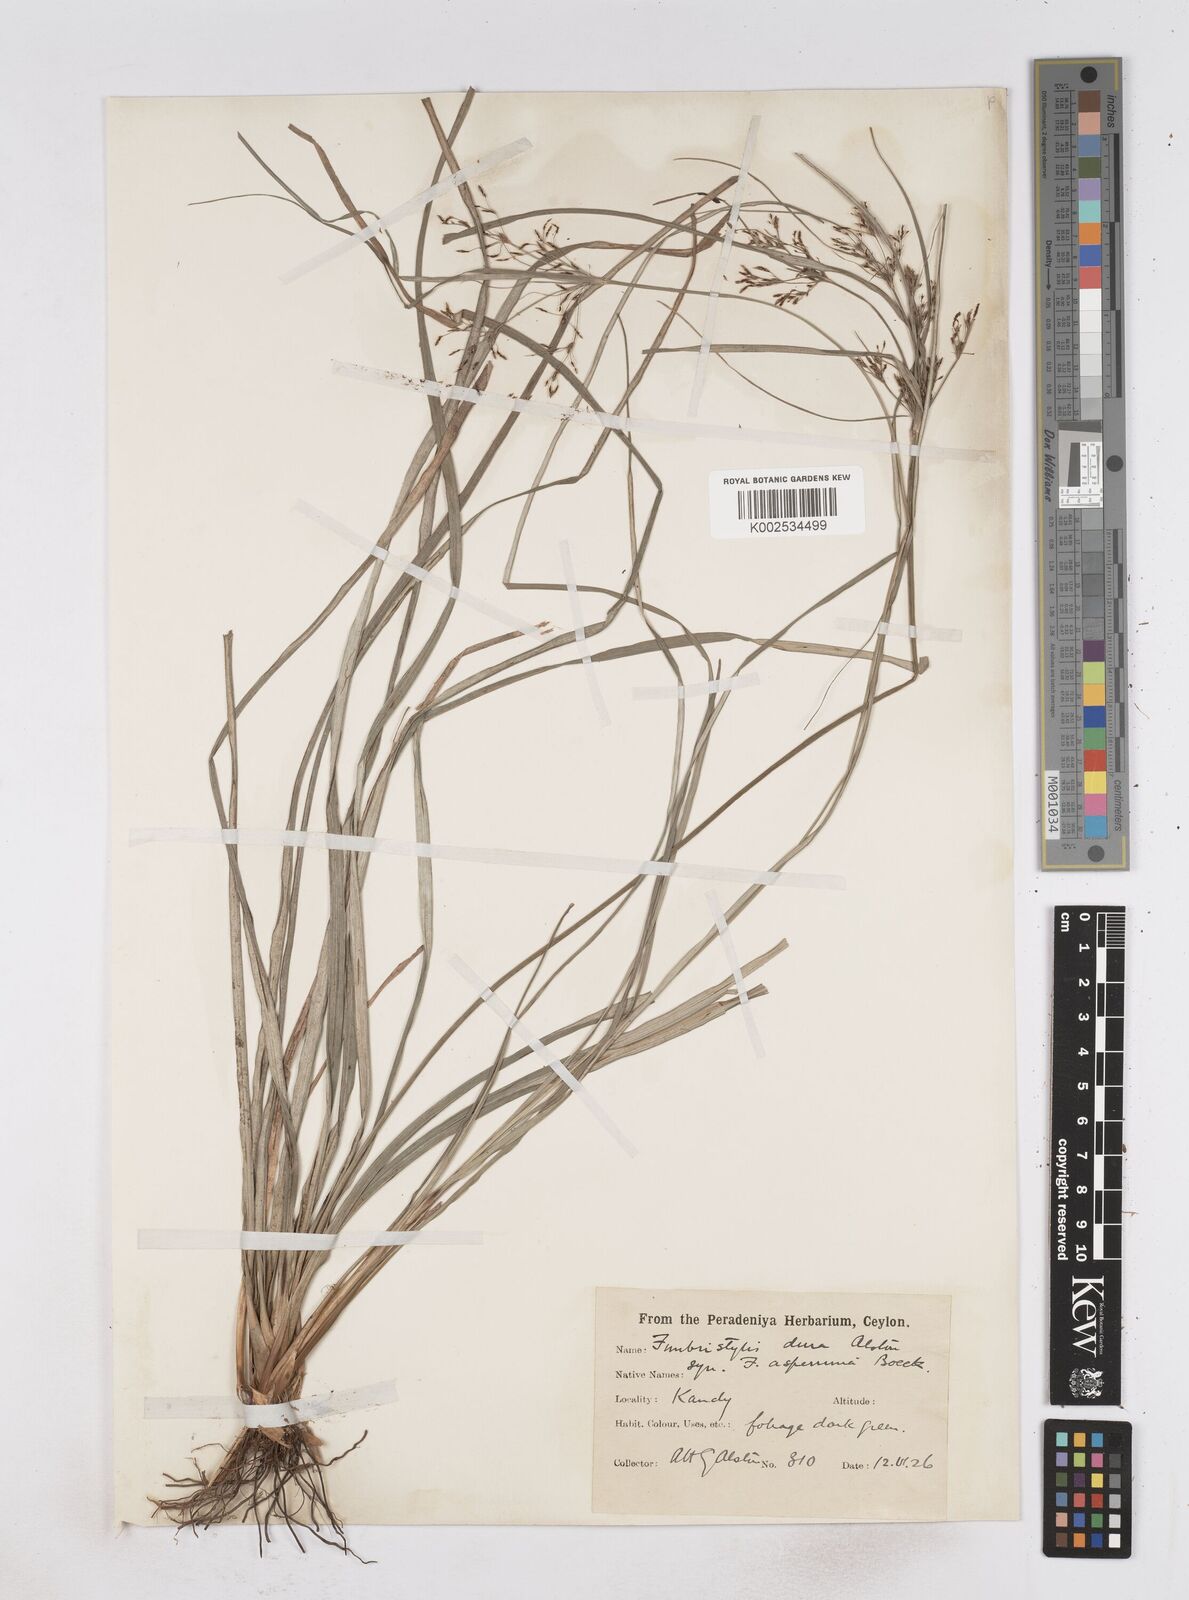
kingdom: Plantae
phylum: Tracheophyta
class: Liliopsida
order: Poales
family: Cyperaceae
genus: Fimbristylis
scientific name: Fimbristylis dura
